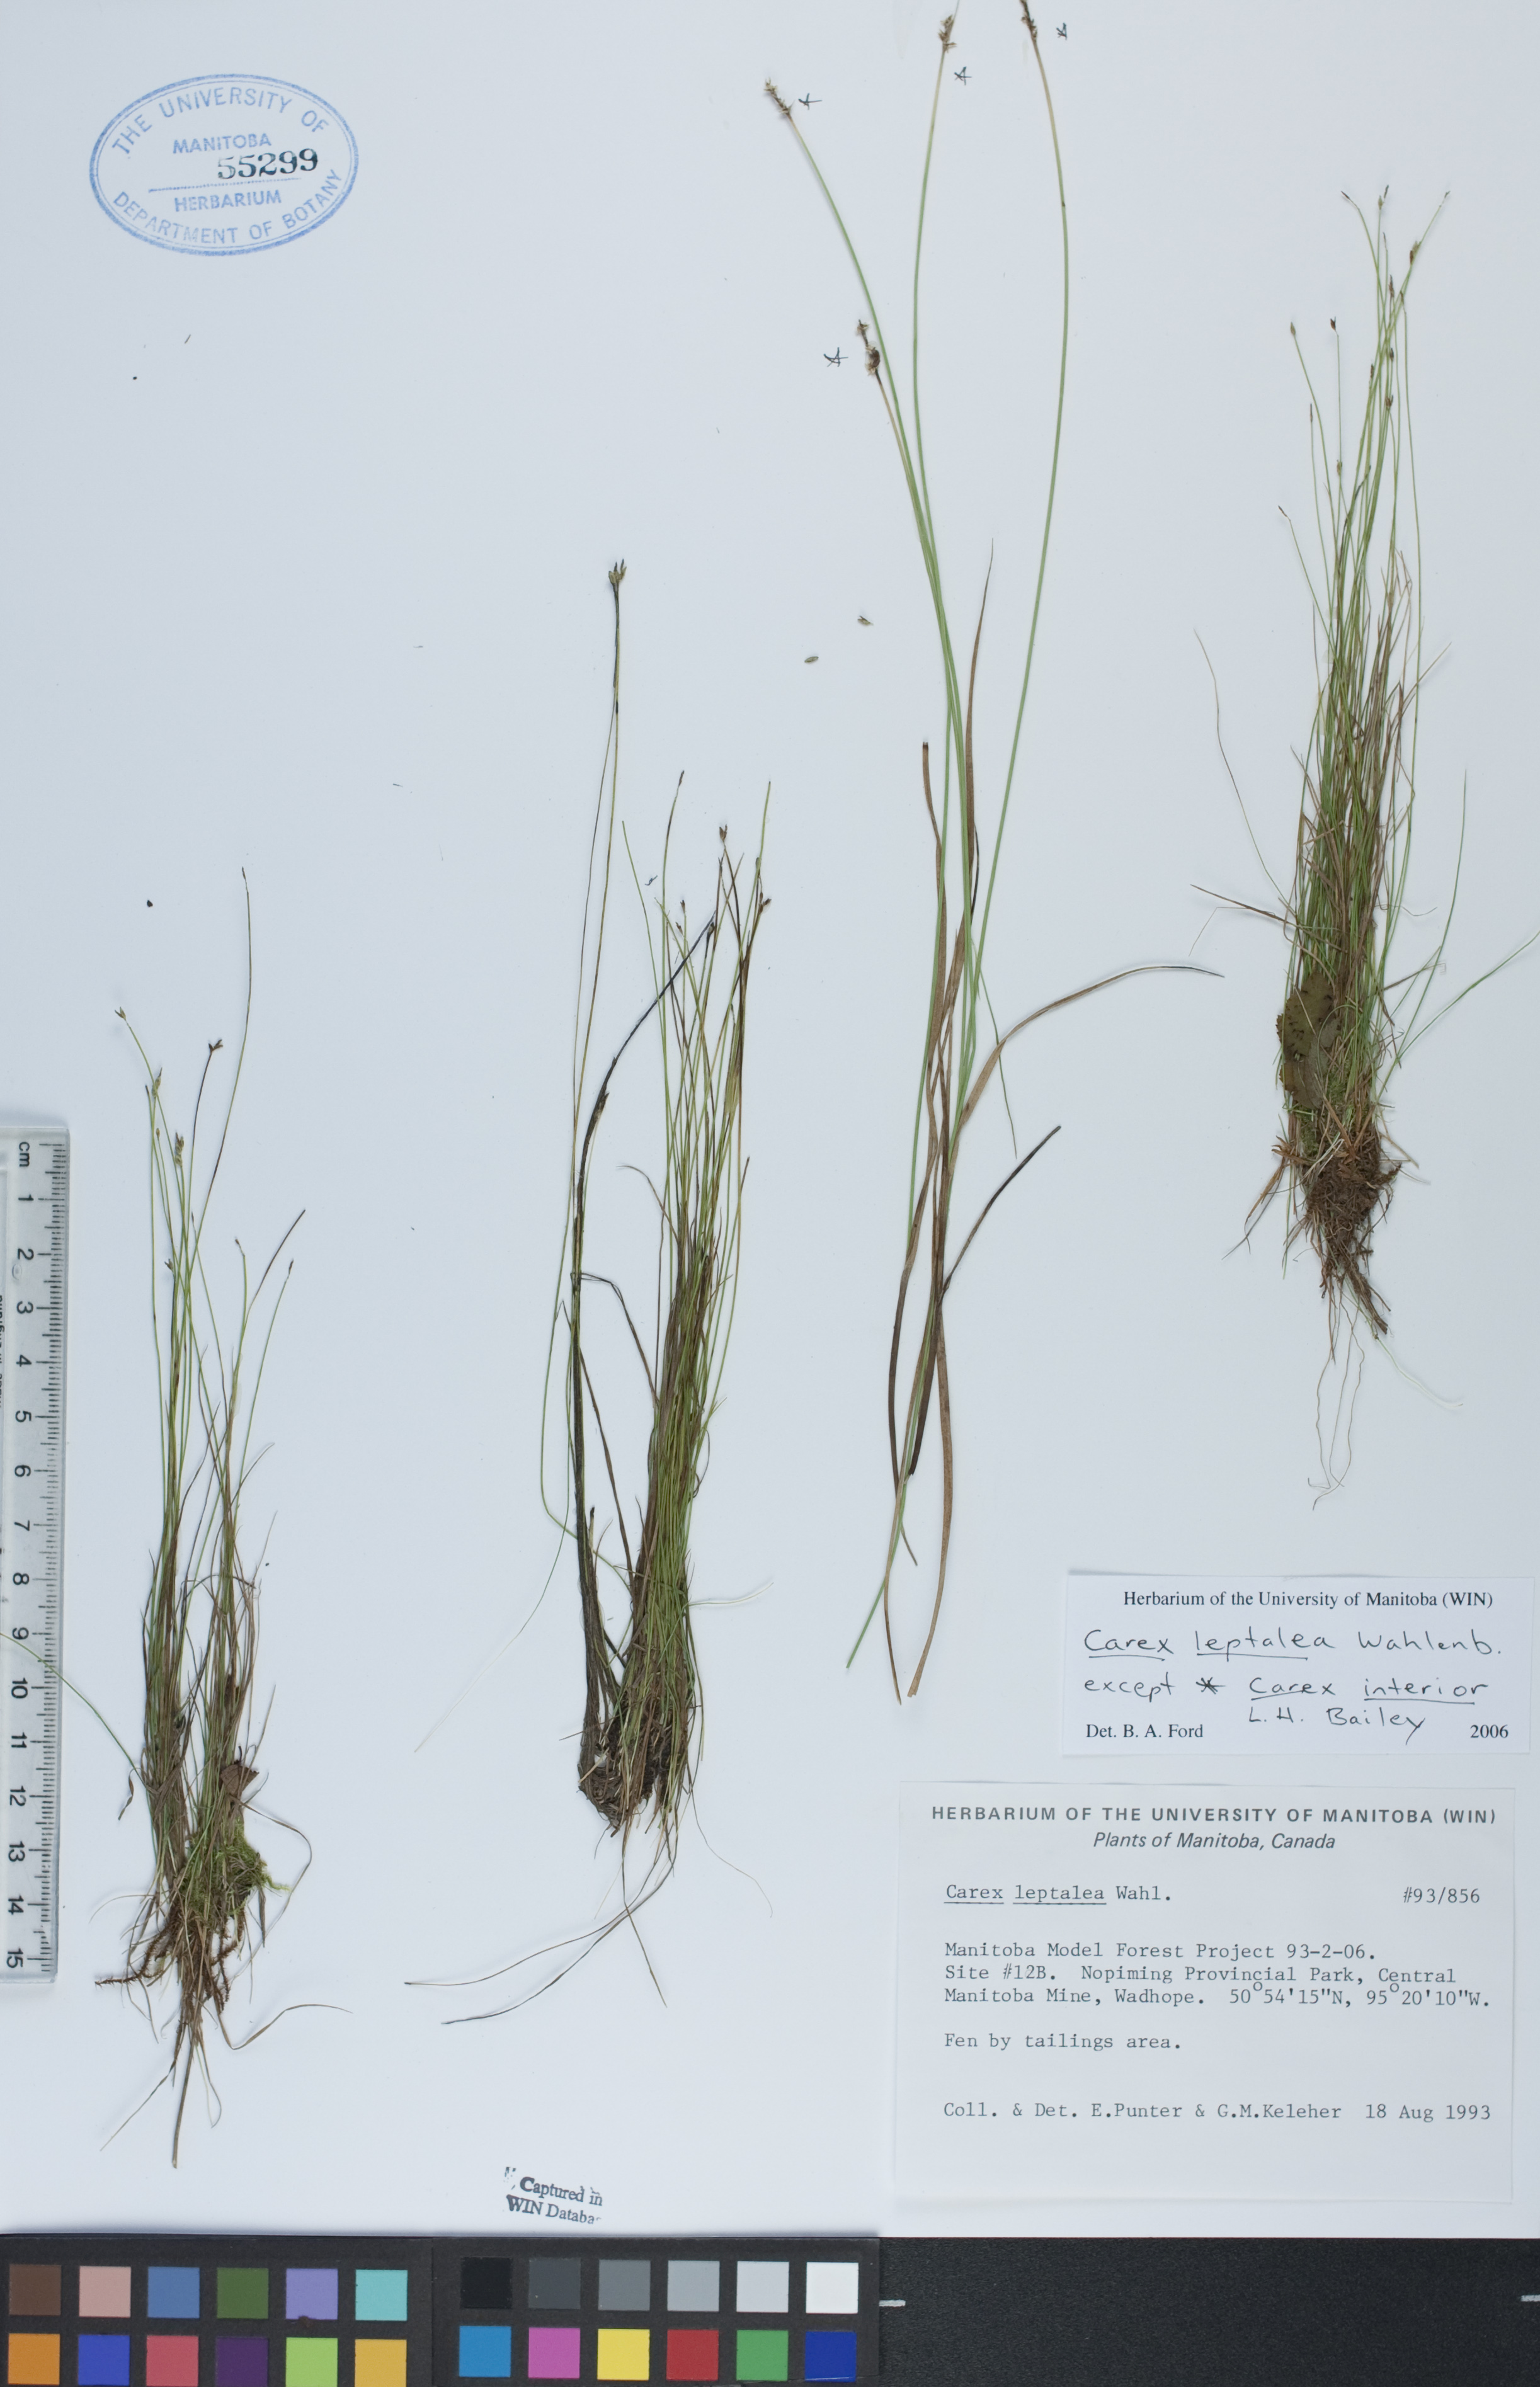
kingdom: Plantae
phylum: Tracheophyta
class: Liliopsida
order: Poales
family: Cyperaceae
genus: Carex
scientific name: Carex leptalea
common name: Bristly-stalked sedge
